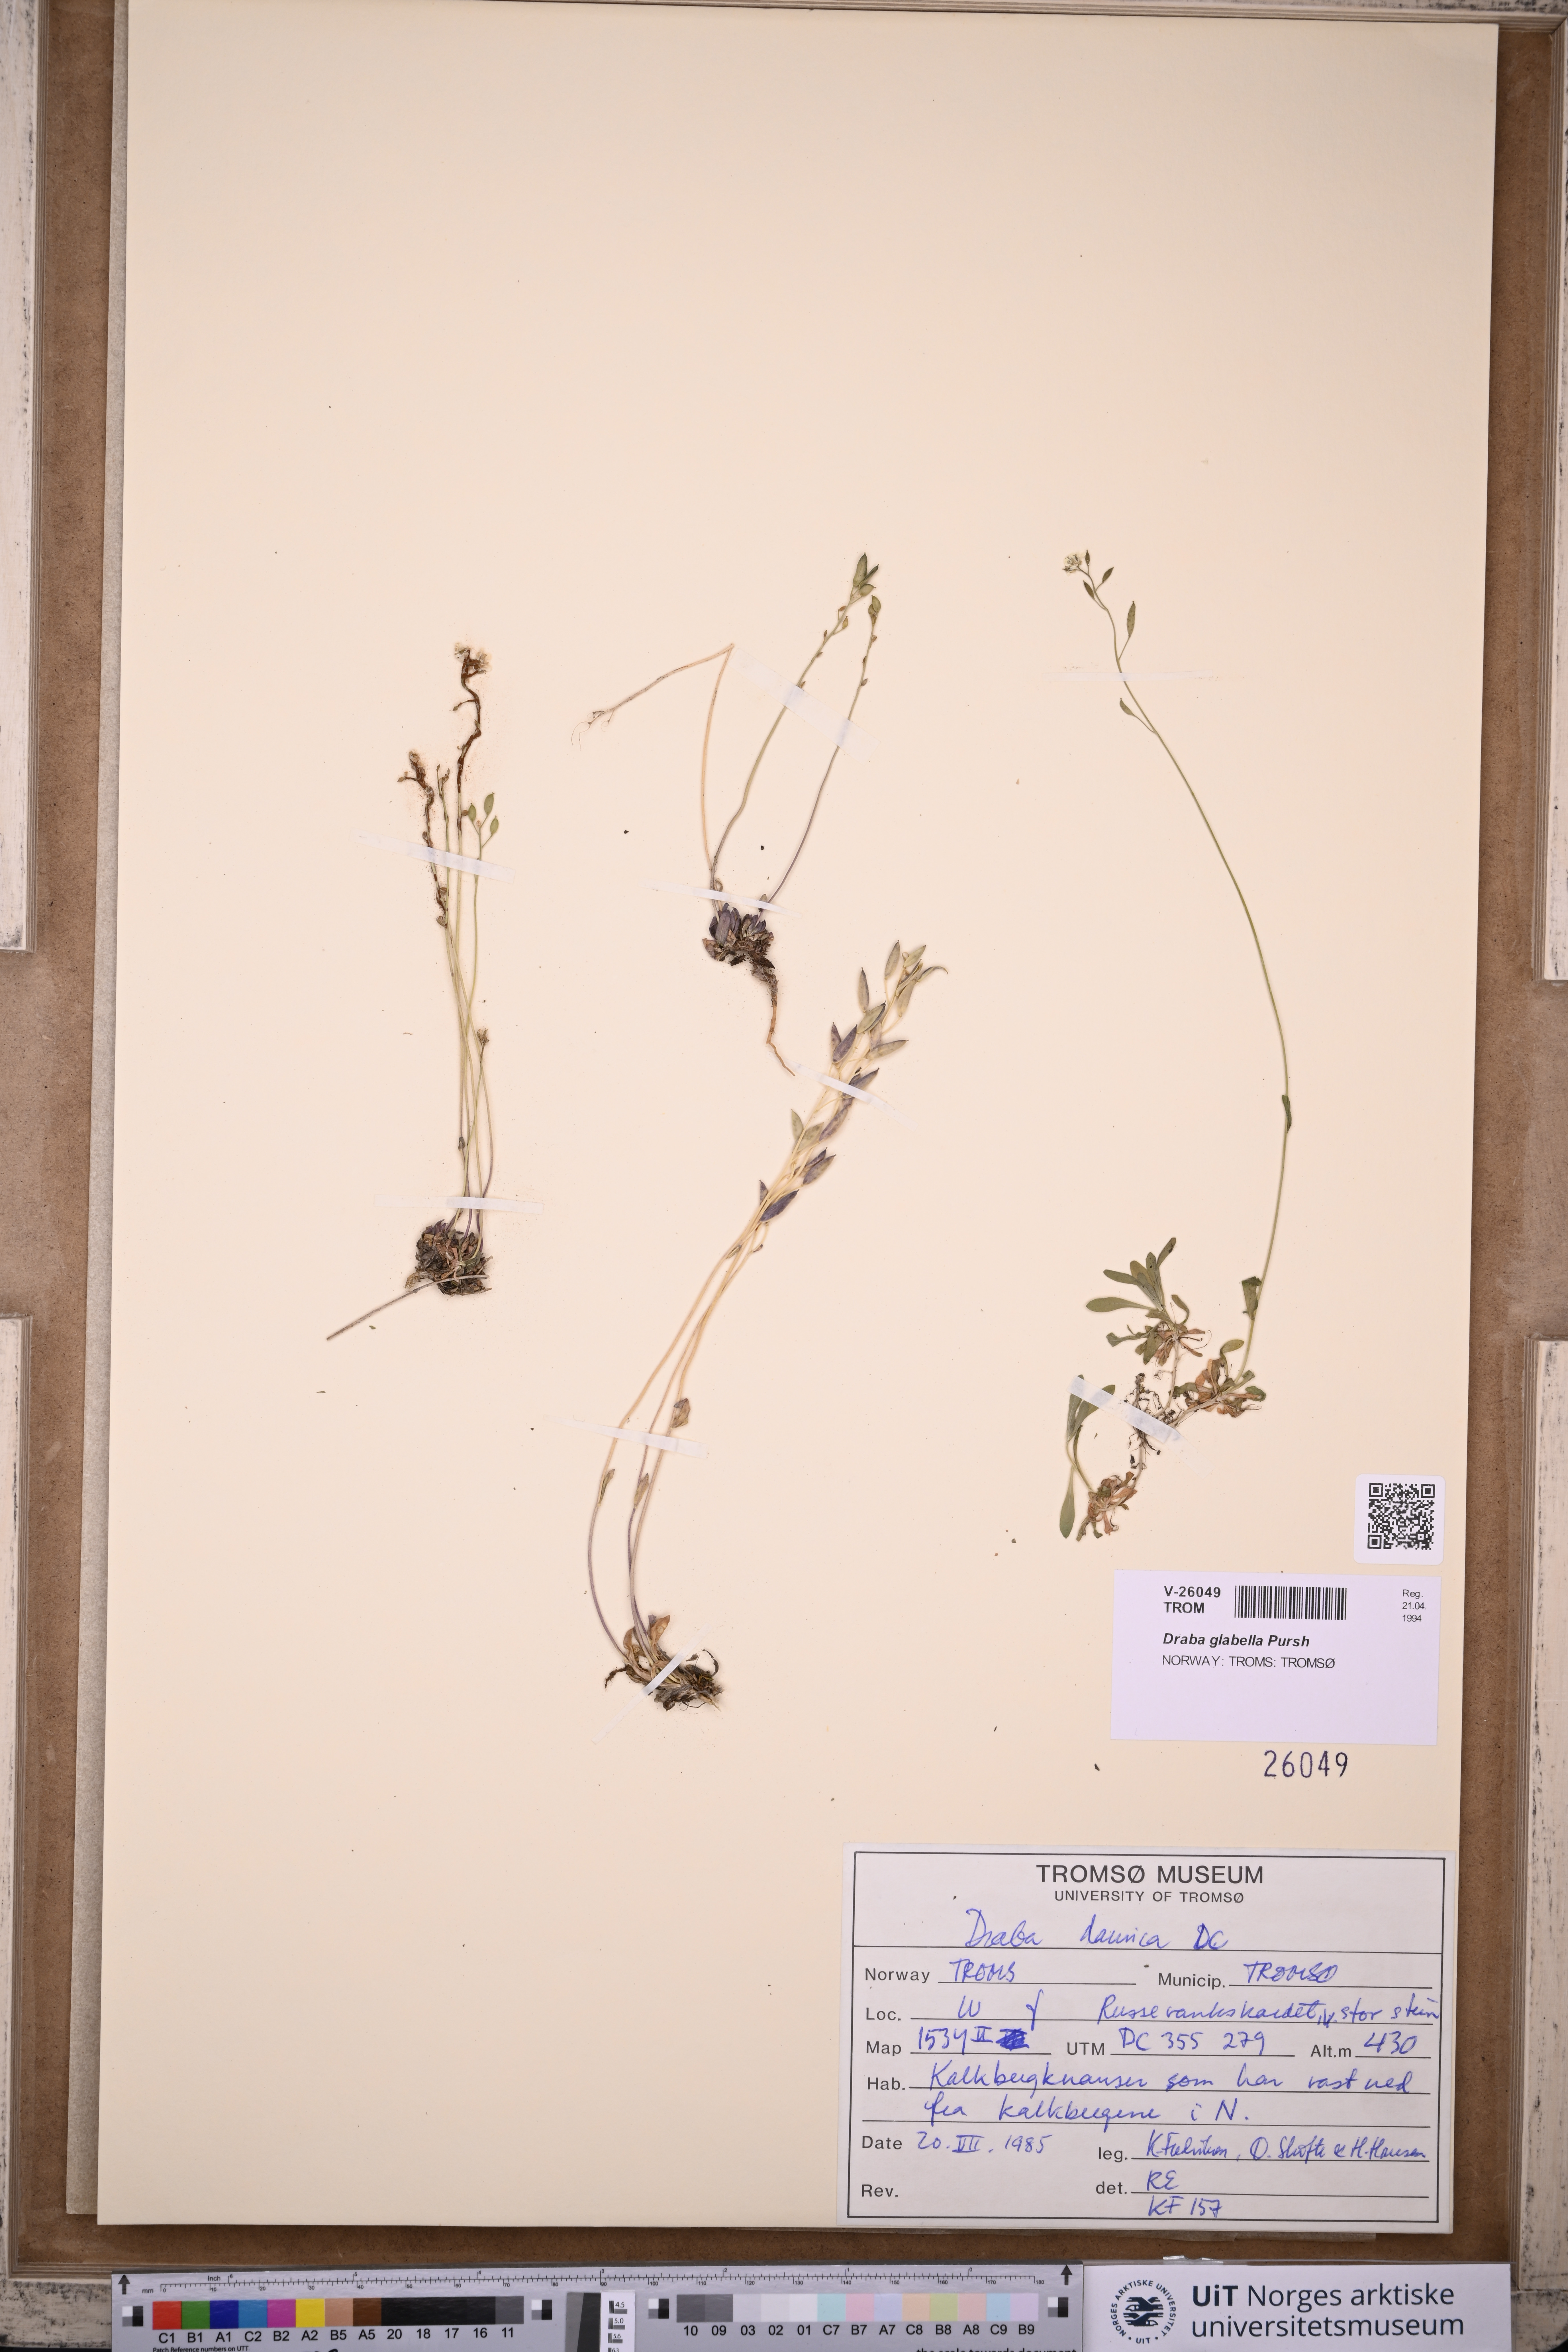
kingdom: Plantae
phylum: Tracheophyta
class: Magnoliopsida
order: Brassicales
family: Brassicaceae
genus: Draba
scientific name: Draba glabella
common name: Glaucous draba
